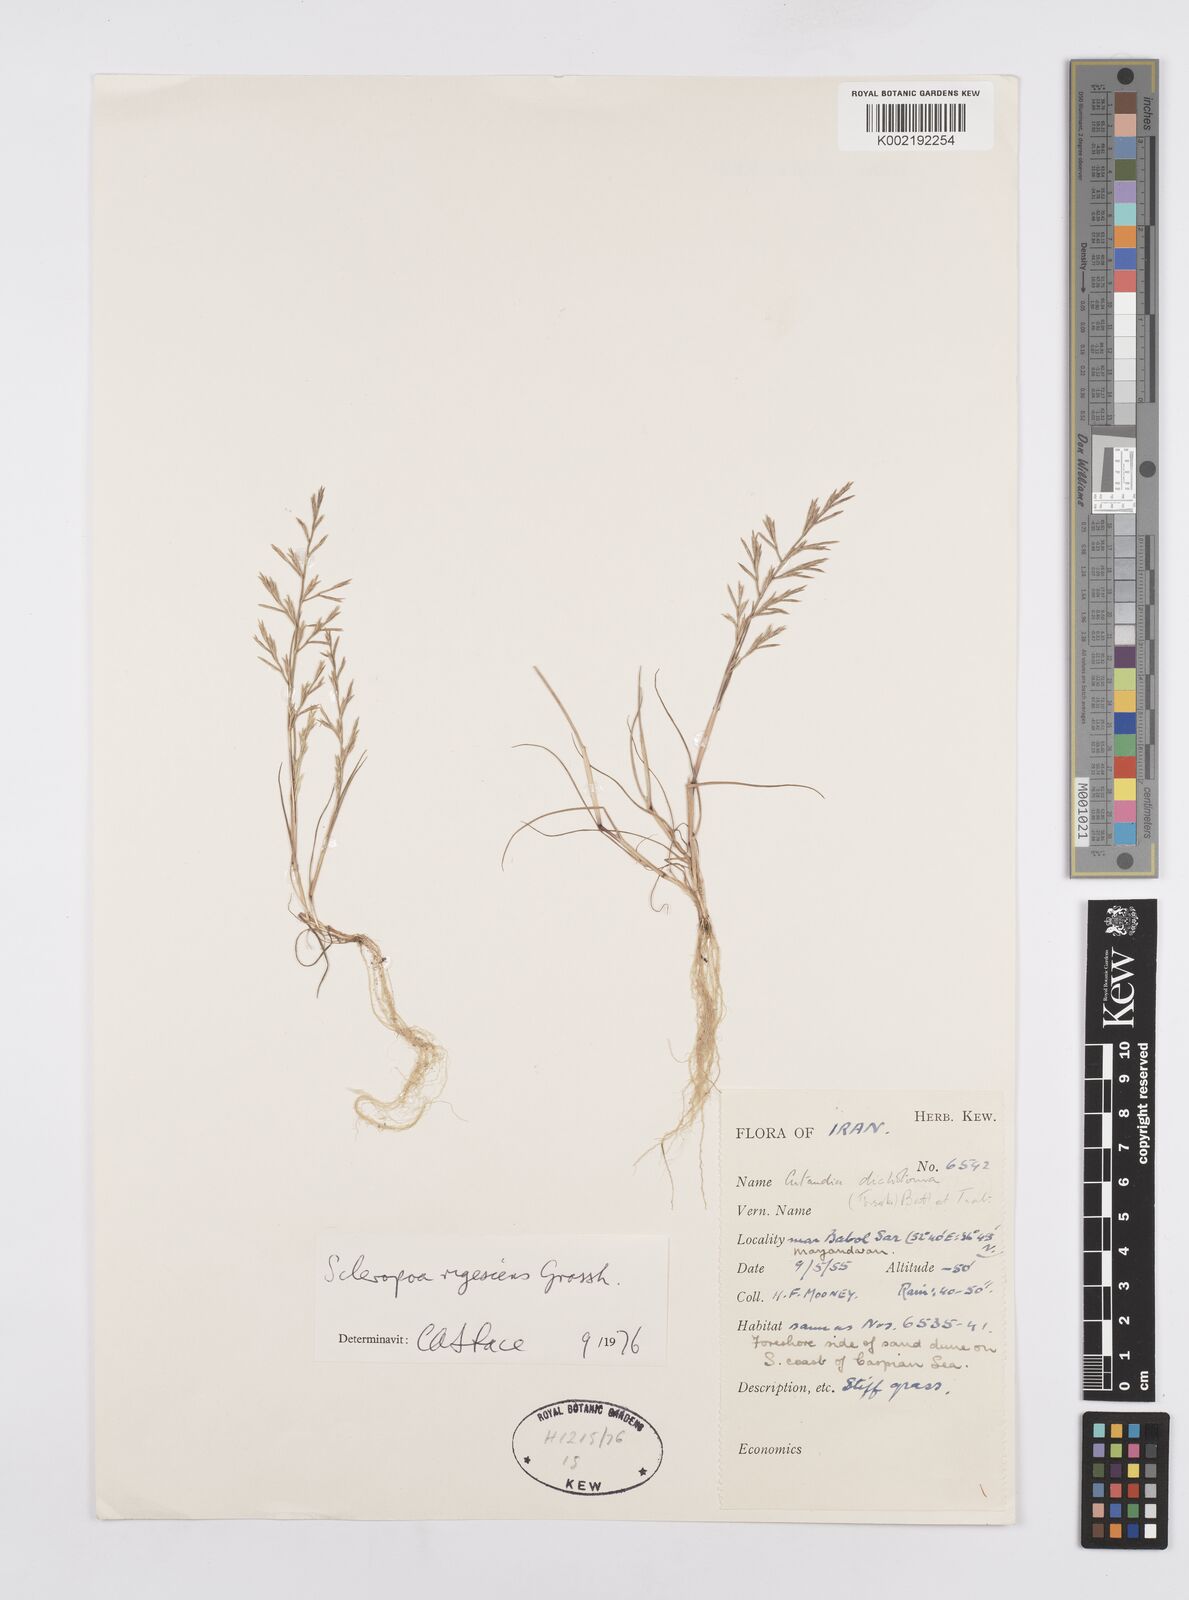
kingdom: Plantae
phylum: Tracheophyta
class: Liliopsida
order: Poales
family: Poaceae
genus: Cutandia
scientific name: Cutandia rigescens
